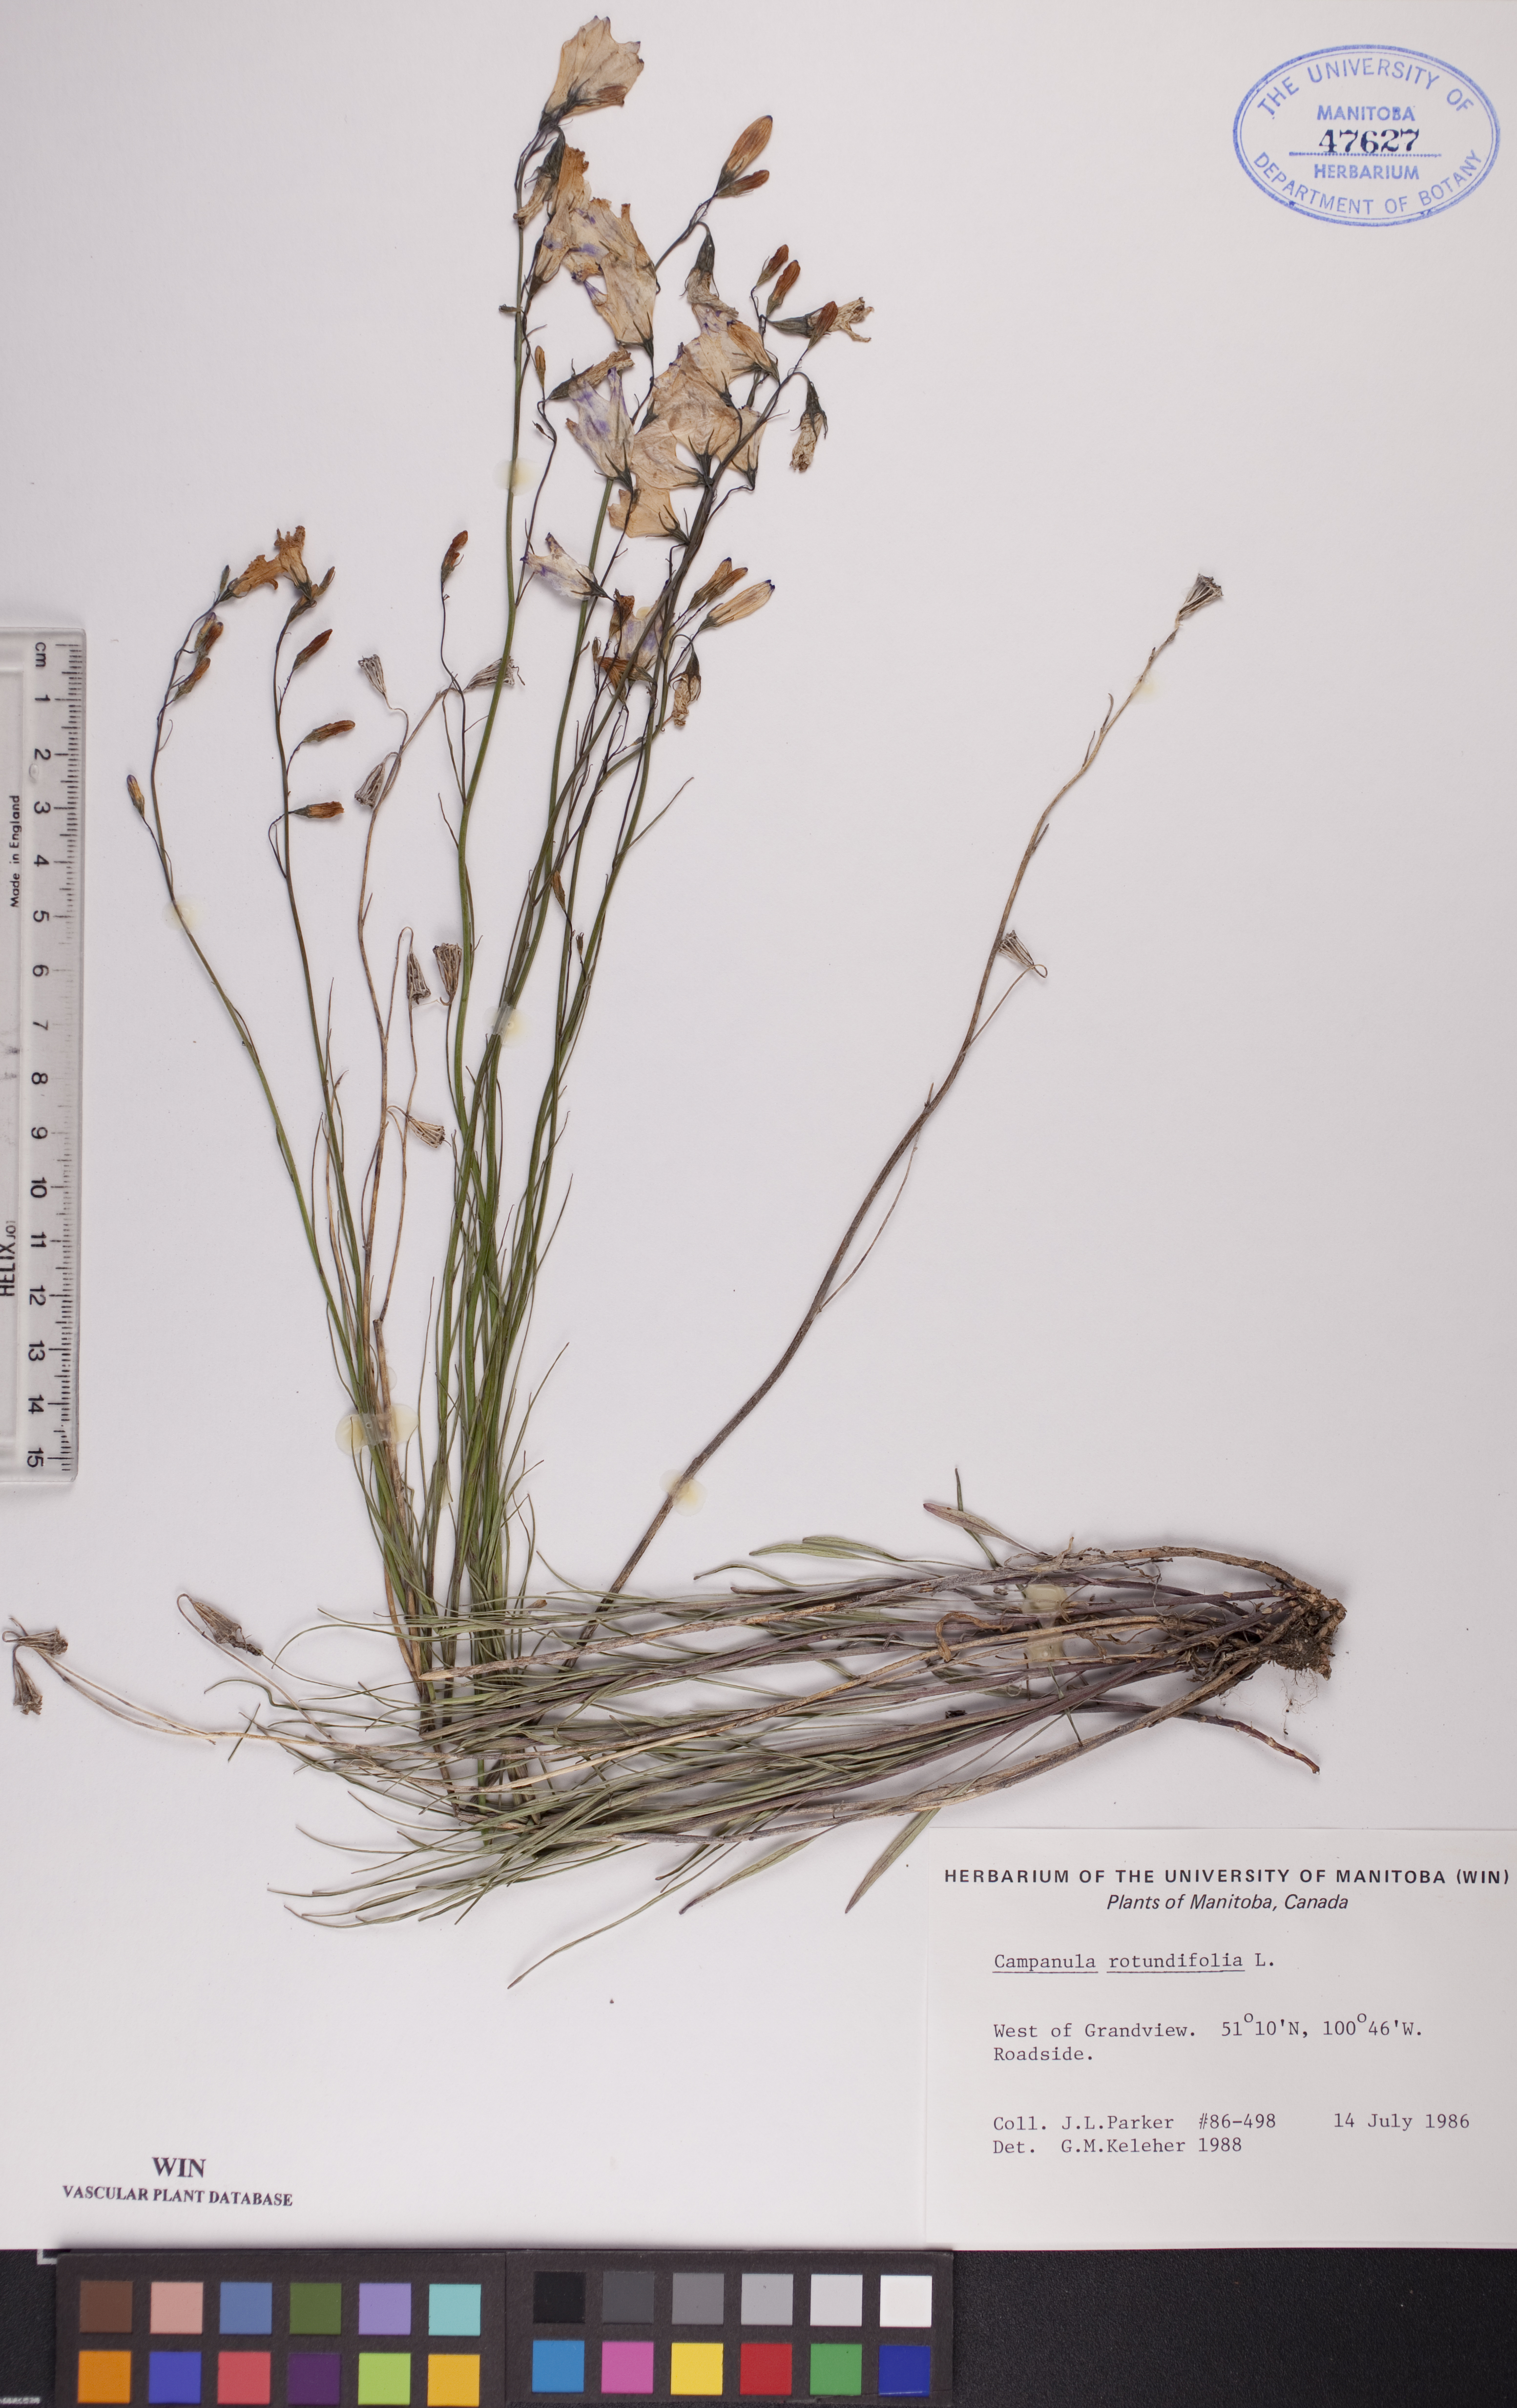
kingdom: Plantae
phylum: Tracheophyta
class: Magnoliopsida
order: Asterales
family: Campanulaceae
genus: Campanula
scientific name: Campanula rotundifolia
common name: Harebell
